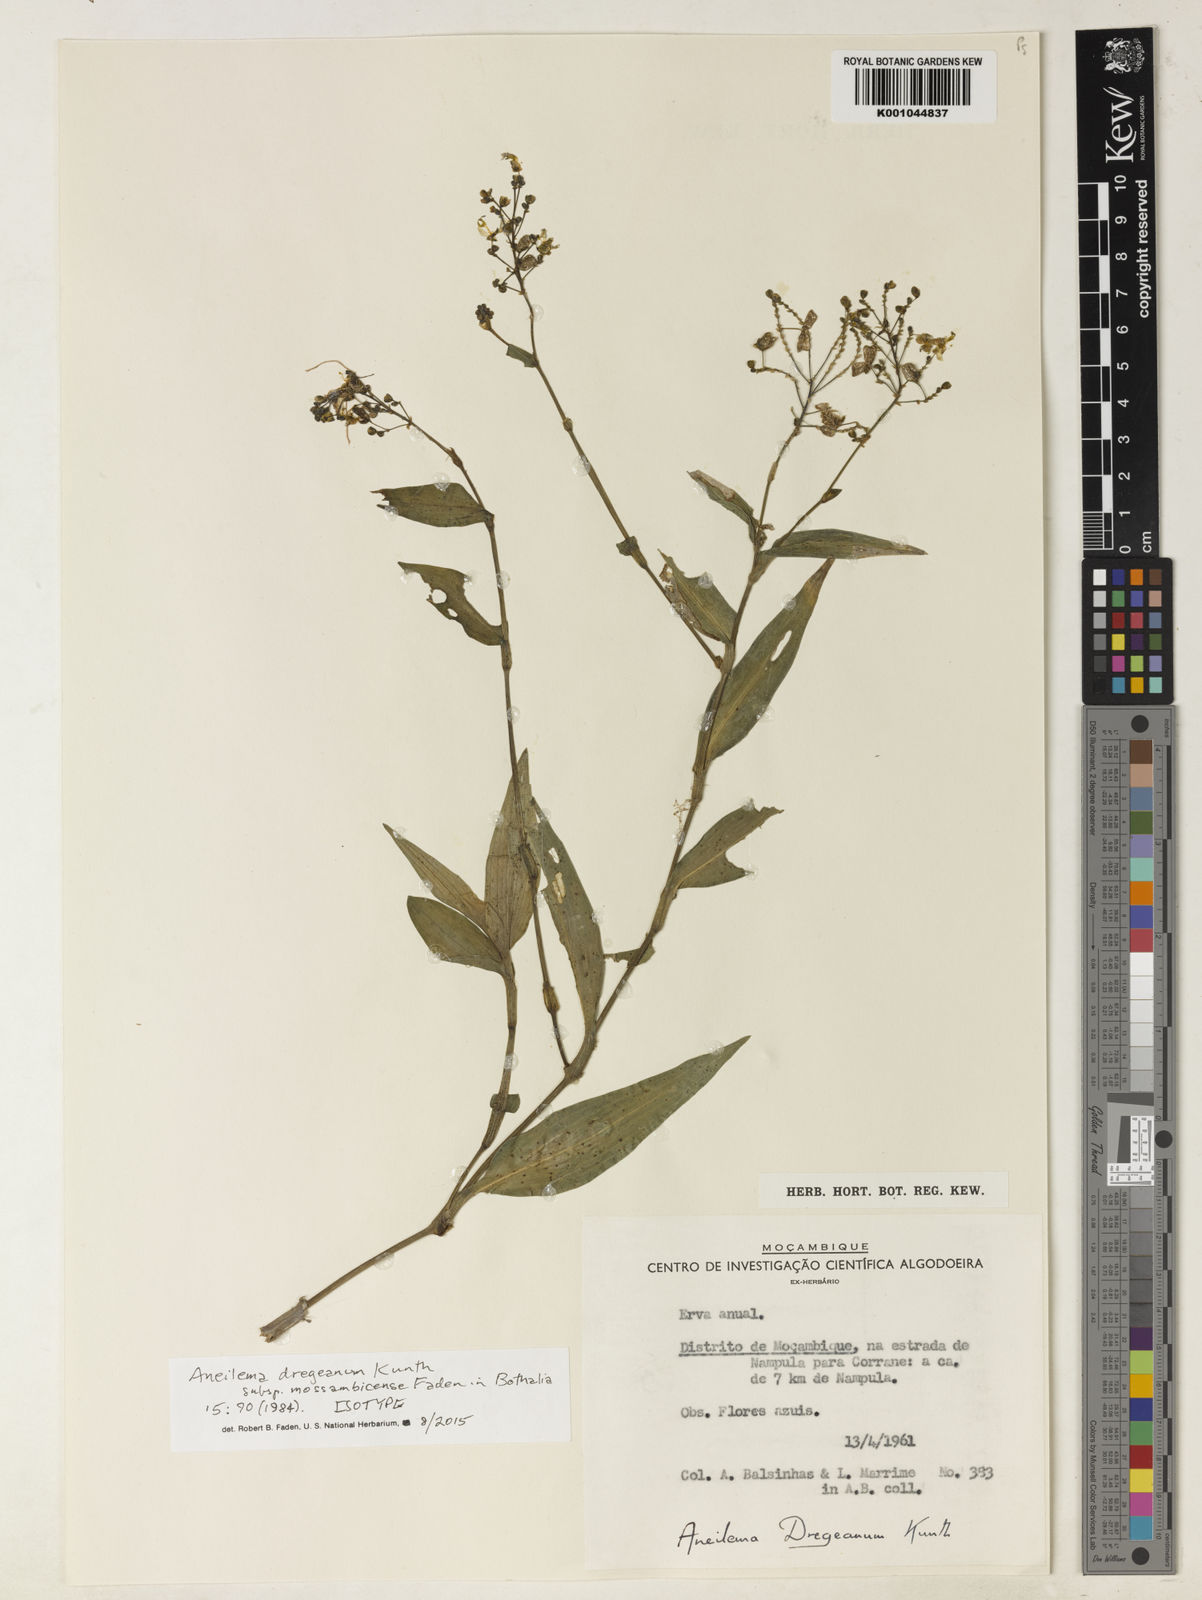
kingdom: Plantae
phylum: Tracheophyta
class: Liliopsida
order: Commelinales
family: Commelinaceae
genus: Aneilema
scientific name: Aneilema dregeanum
